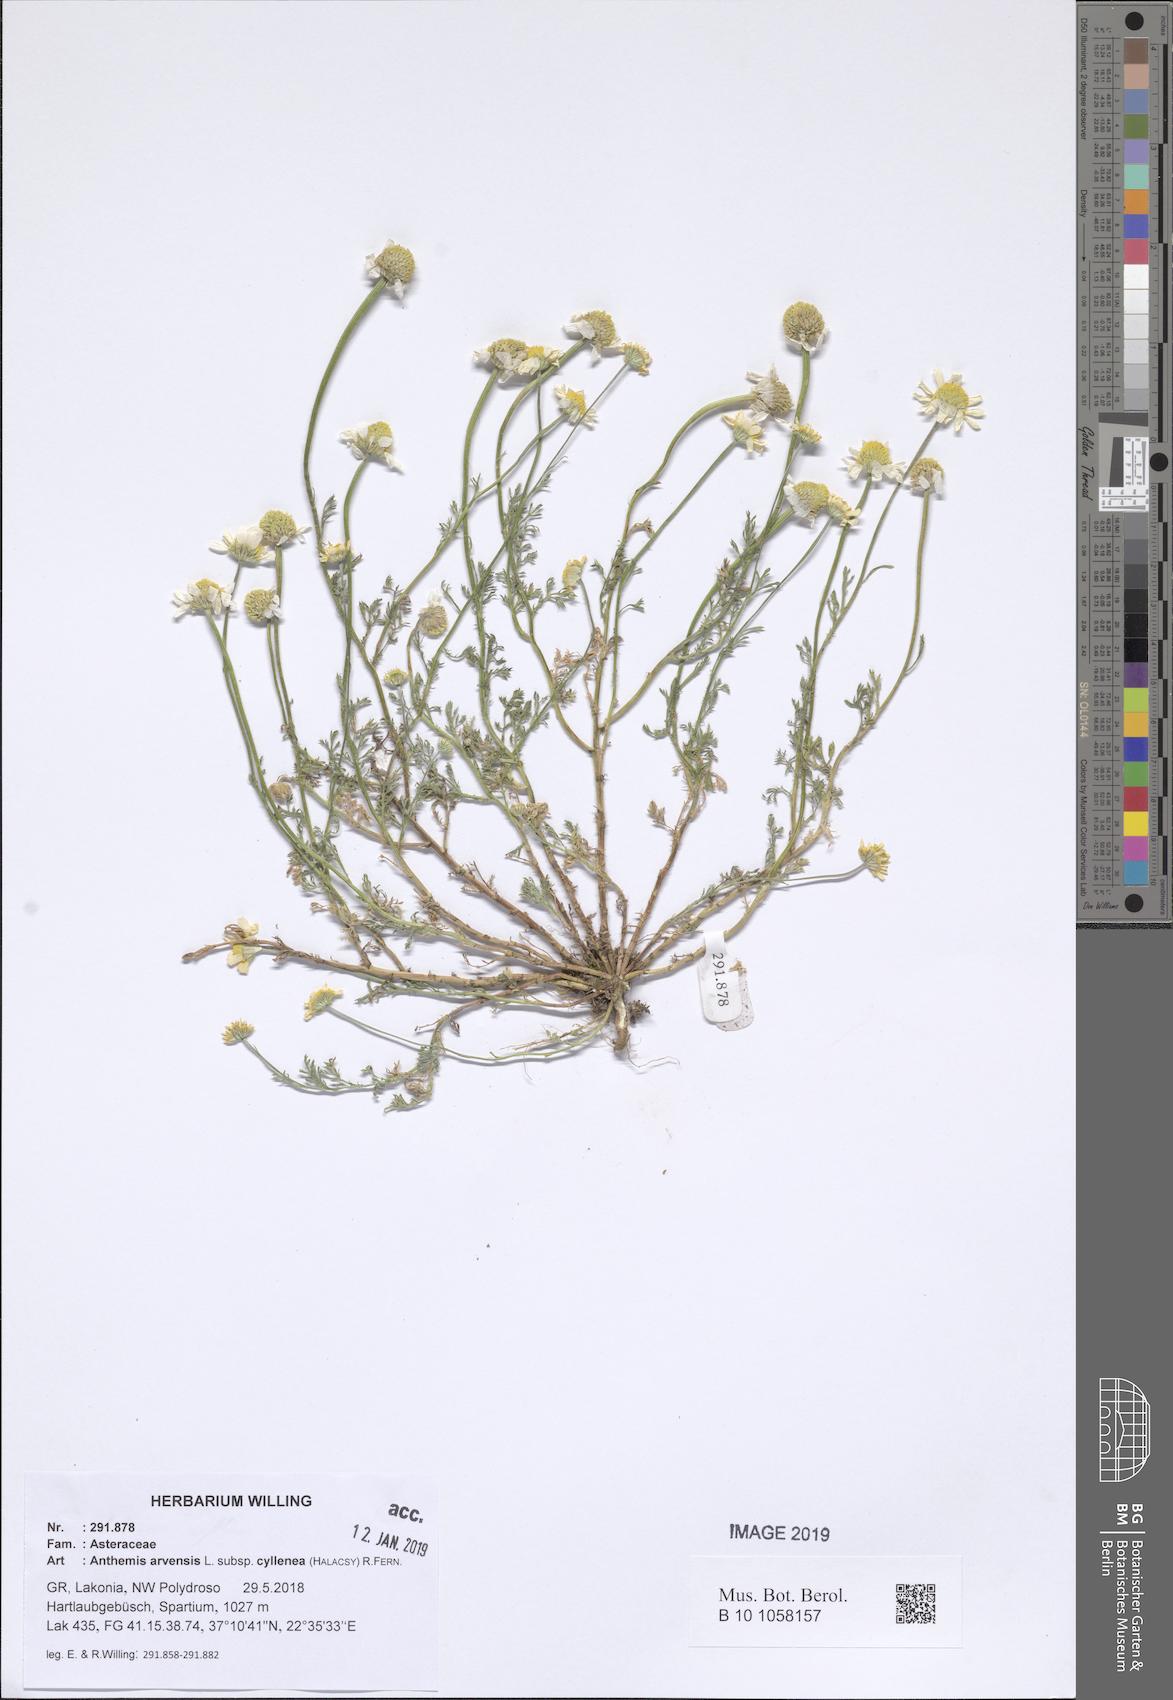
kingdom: Plantae
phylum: Tracheophyta
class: Magnoliopsida
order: Asterales
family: Asteraceae
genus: Anthemis
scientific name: Anthemis arvensis
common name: Corn chamomile
